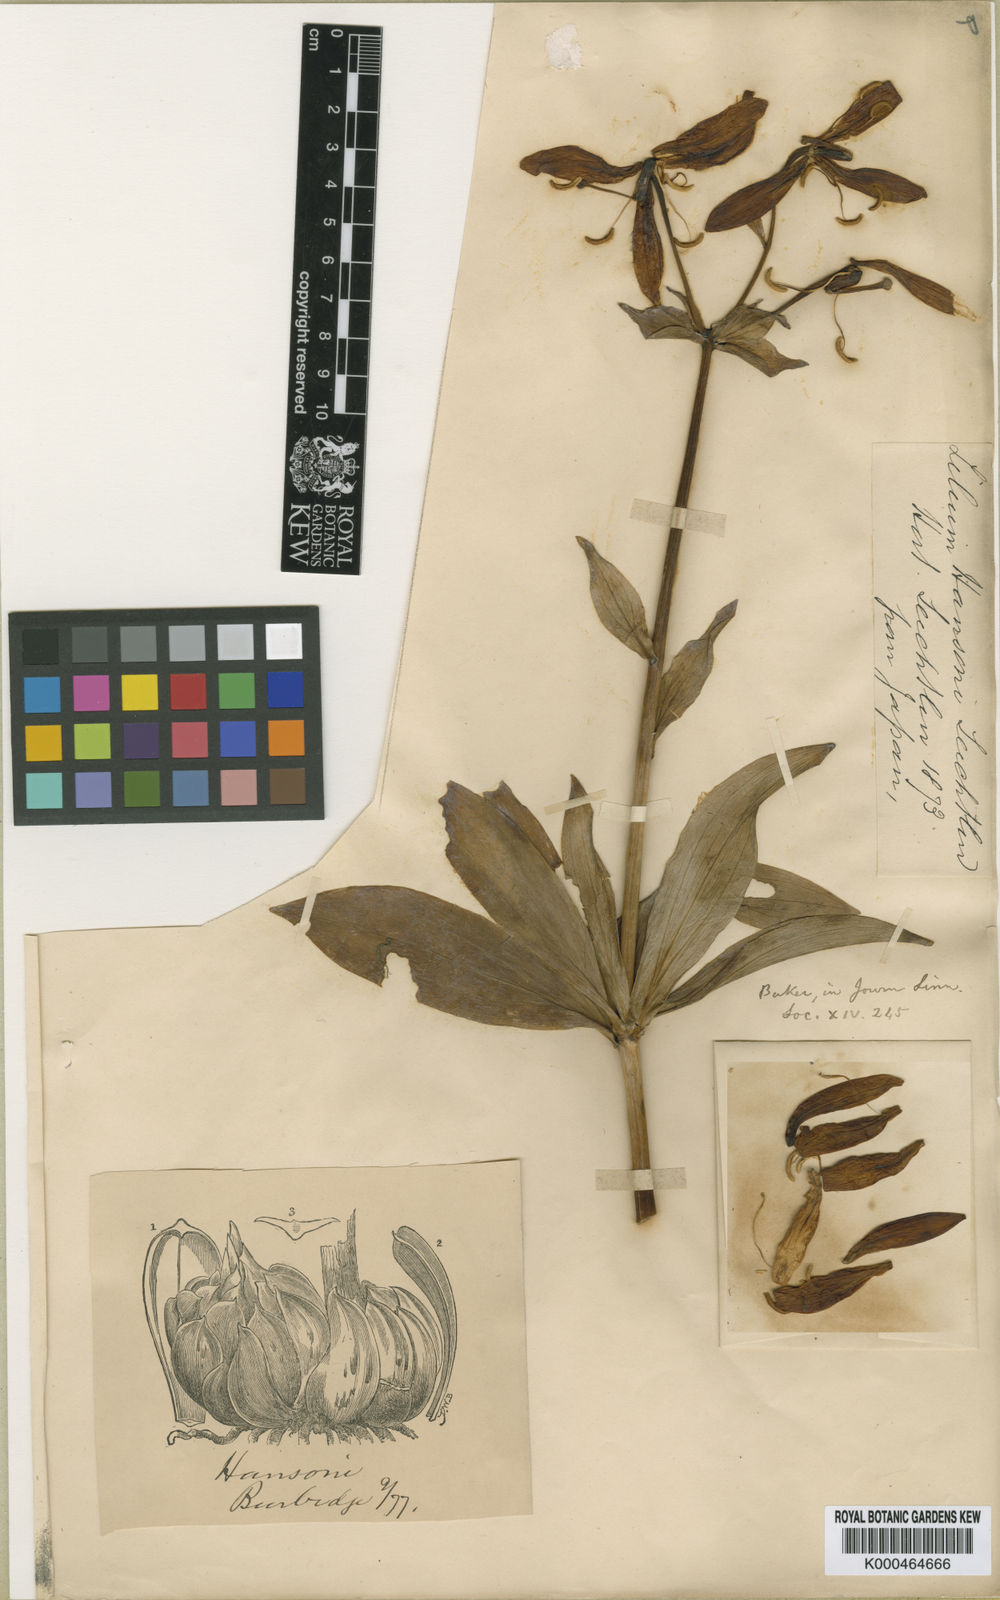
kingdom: Plantae
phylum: Tracheophyta
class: Liliopsida
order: Liliales
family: Liliaceae
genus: Lilium
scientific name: Lilium
